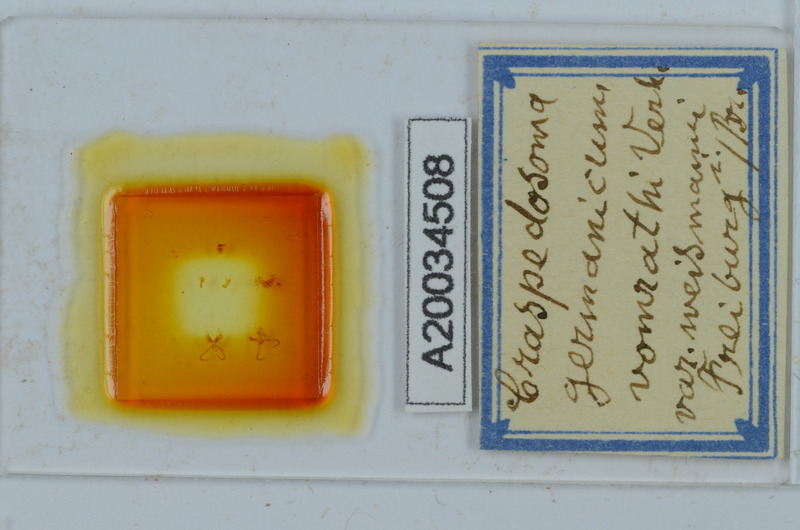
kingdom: Animalia
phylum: Arthropoda
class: Diplopoda
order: Chordeumatida
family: Craspedosomatidae
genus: Craspedosoma
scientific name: Craspedosoma rawlinsii
